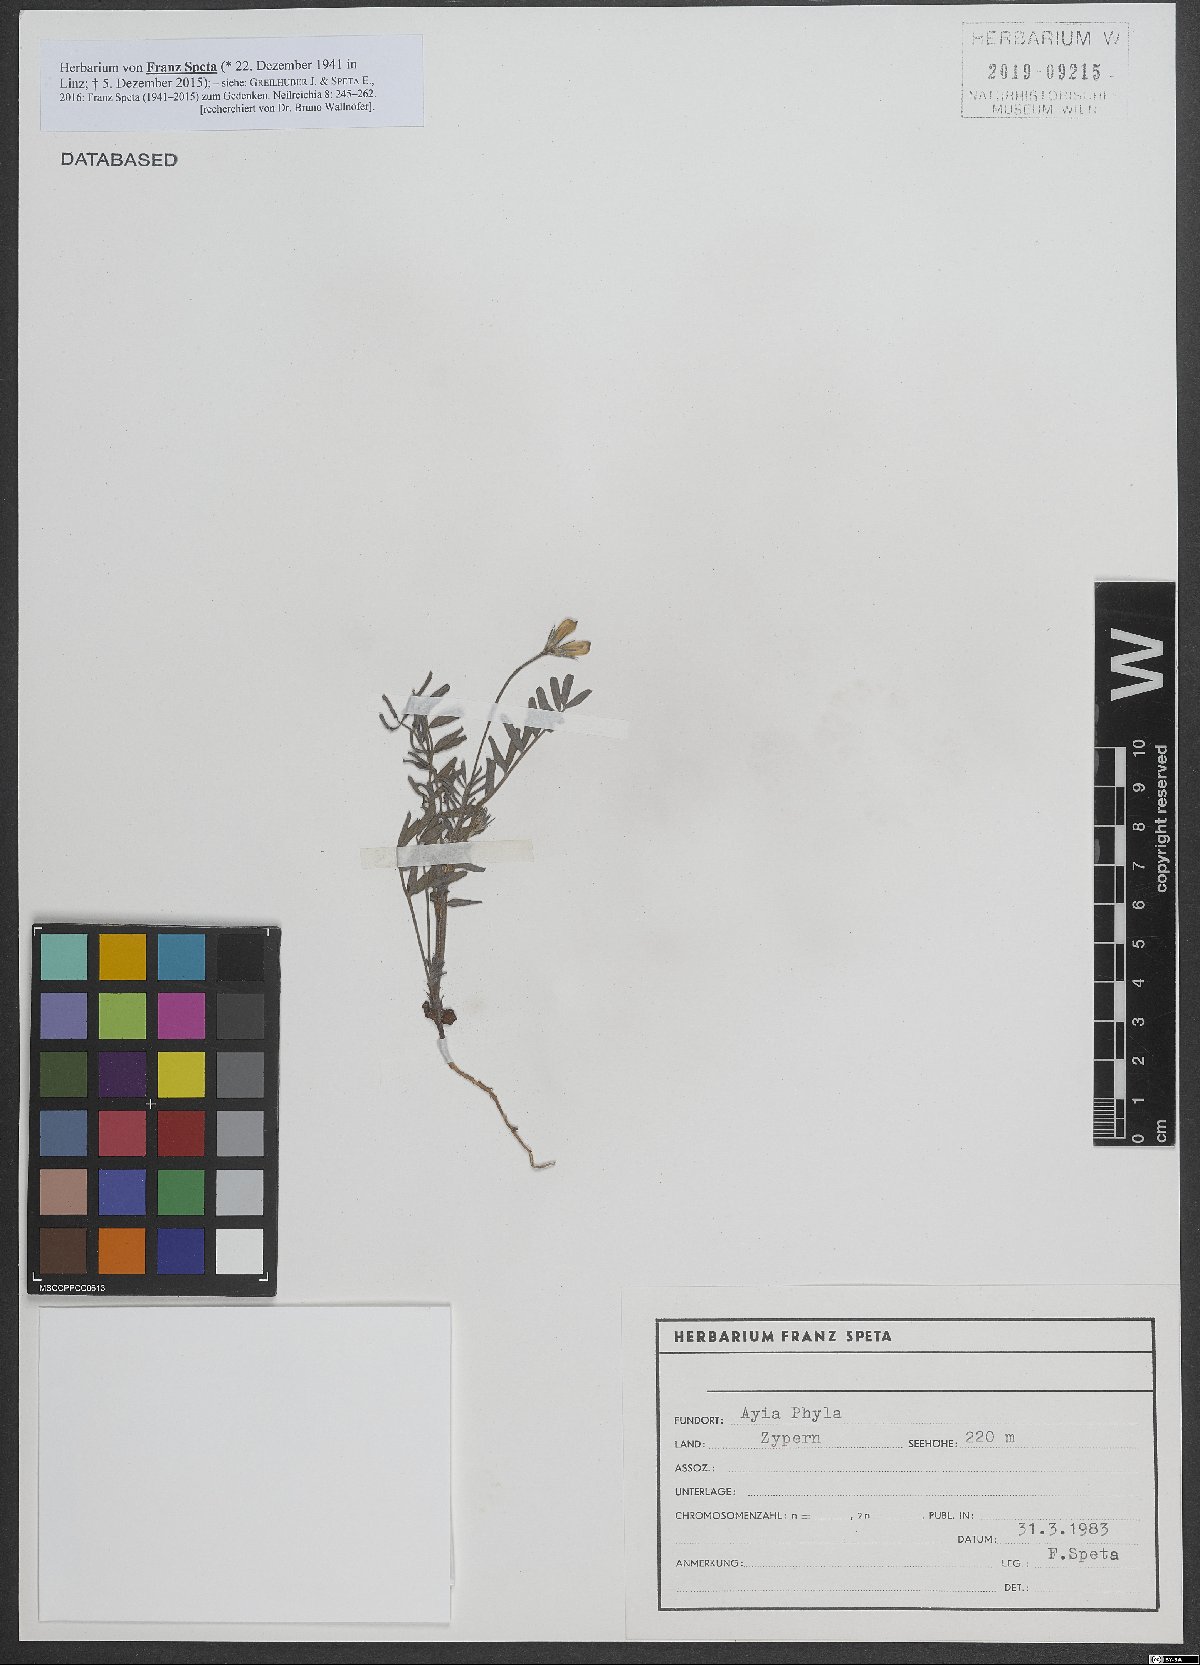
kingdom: Plantae
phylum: Tracheophyta
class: Magnoliopsida
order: Fabales
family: Fabaceae
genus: Onobrychis
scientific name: Onobrychis
